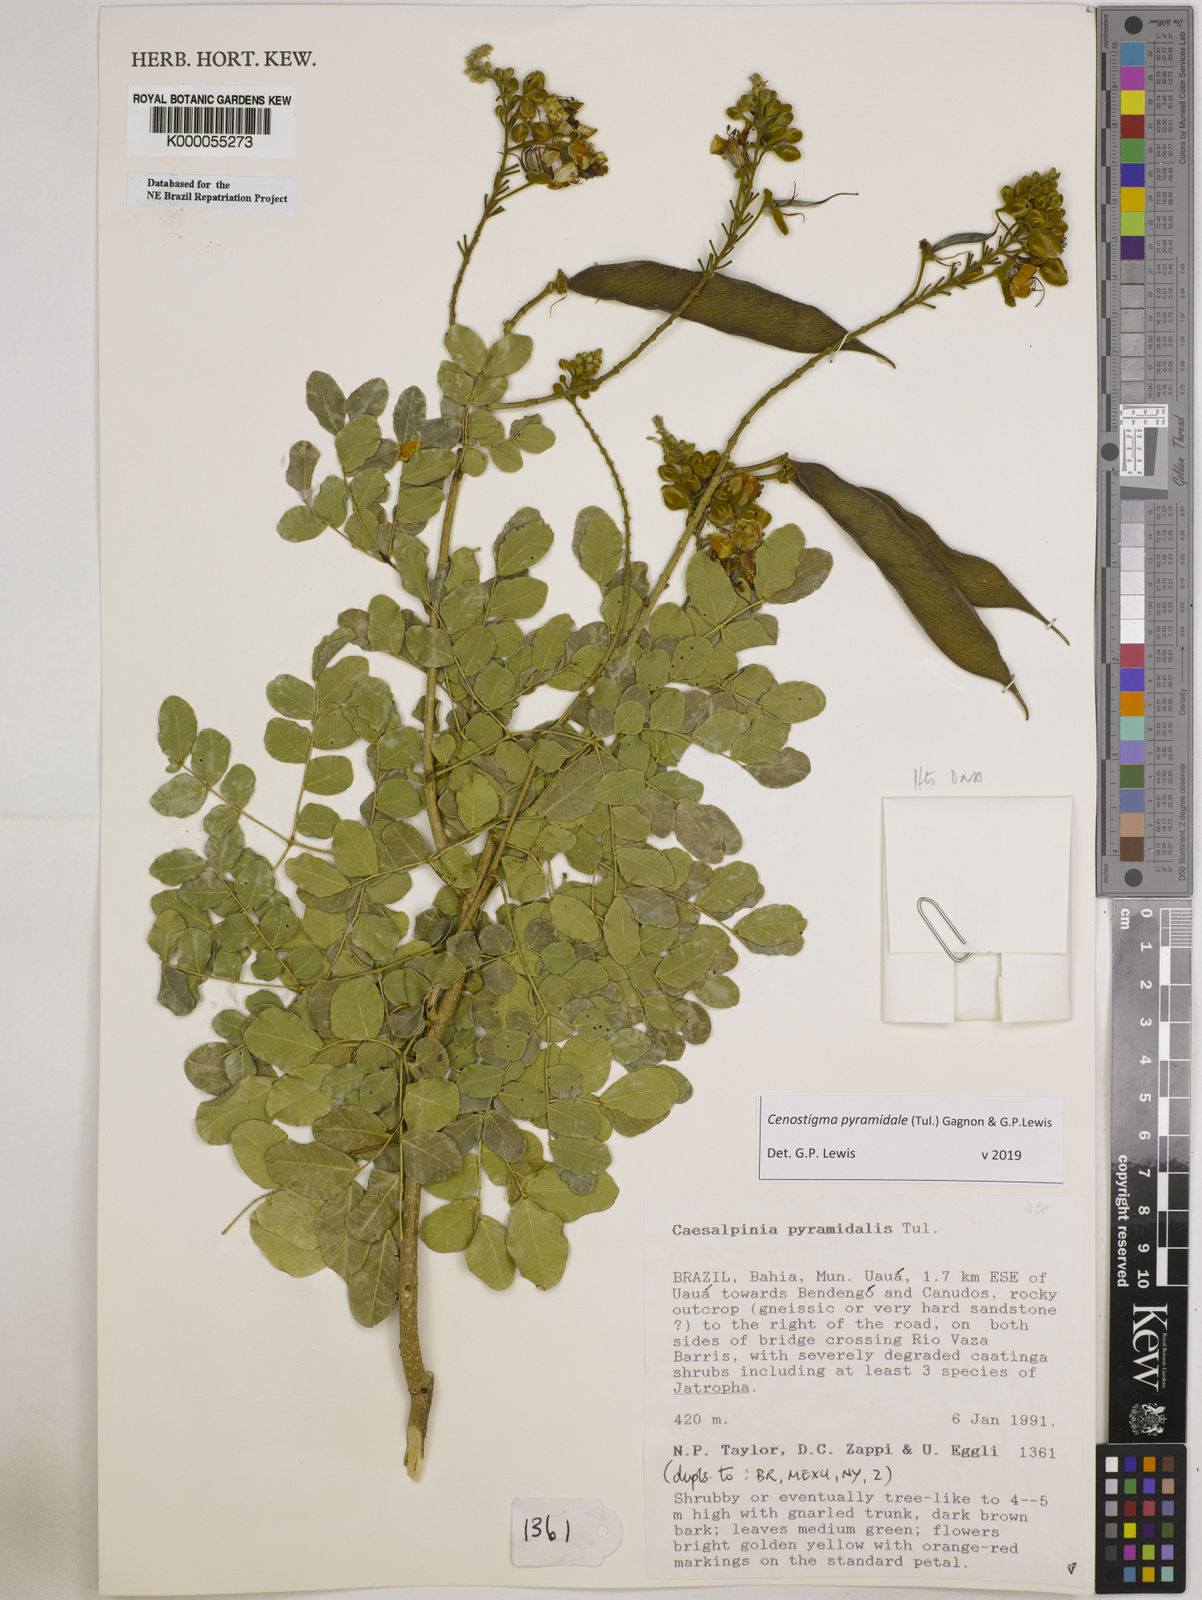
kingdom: Plantae
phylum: Tracheophyta
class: Magnoliopsida
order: Fabales
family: Fabaceae
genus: Cenostigma
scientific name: Cenostigma pyramidale
